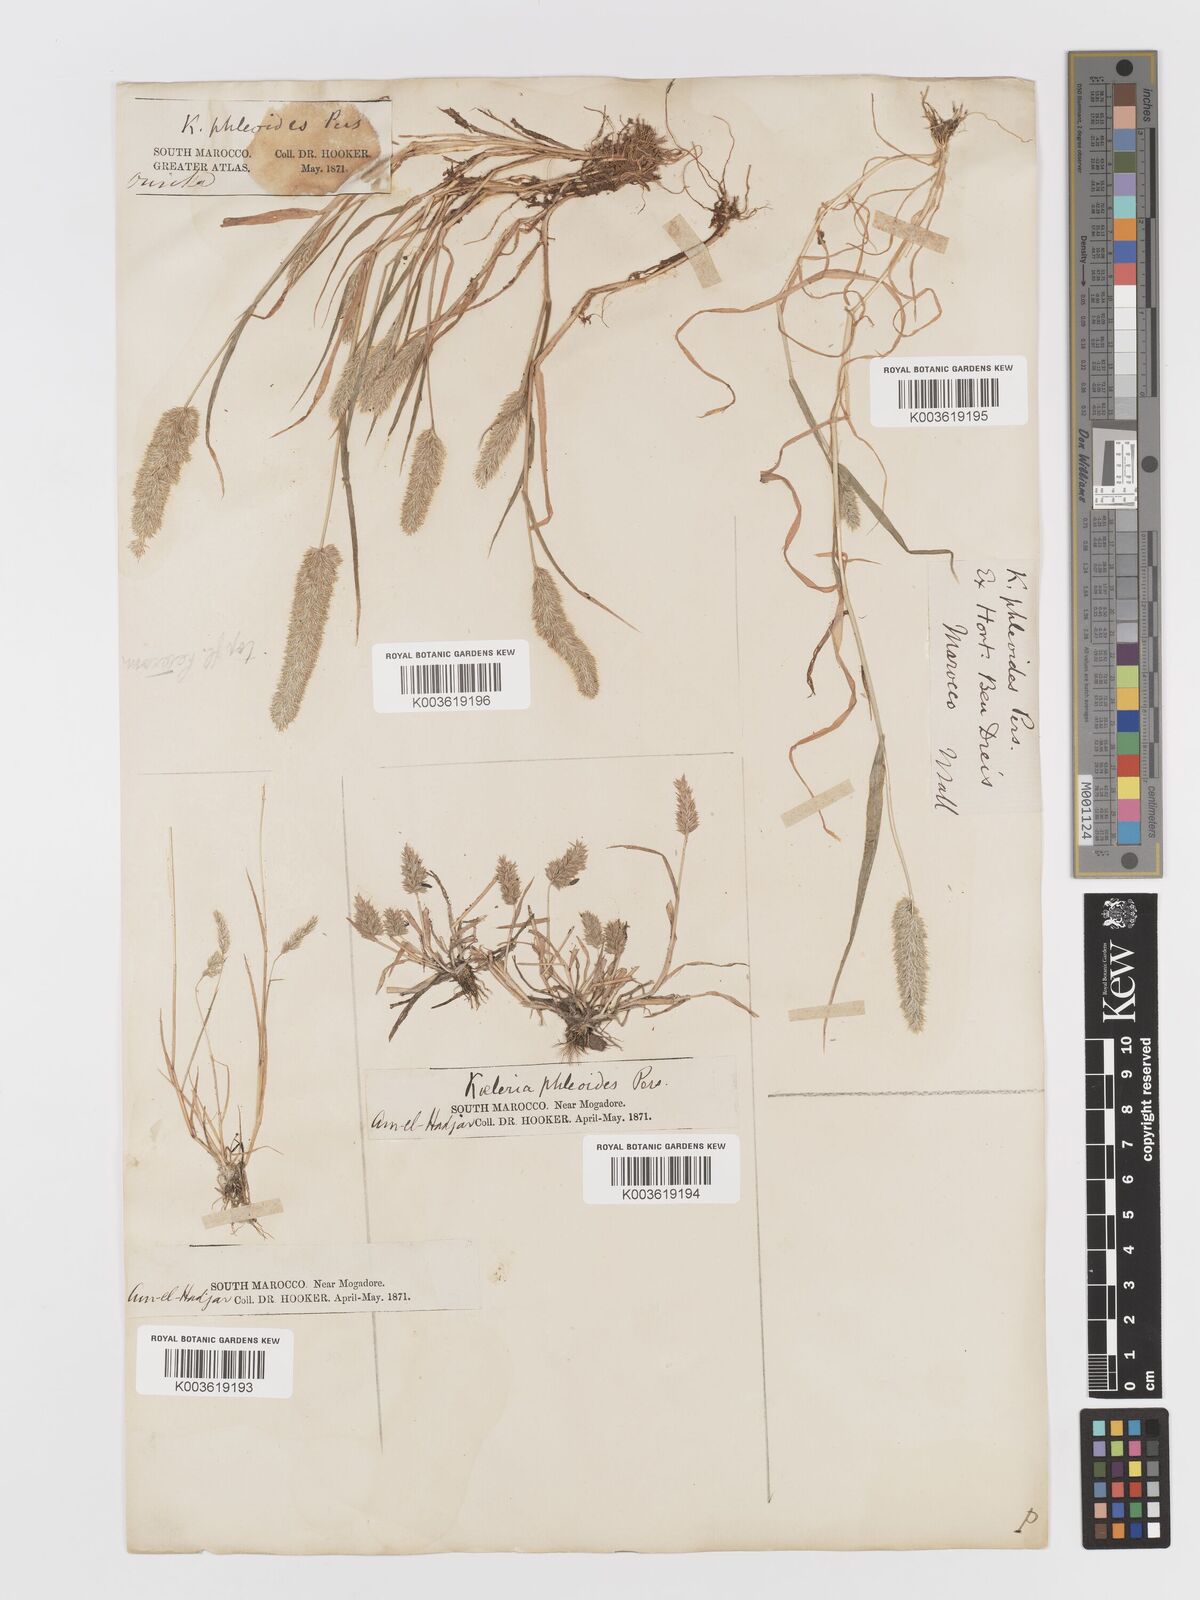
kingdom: Plantae
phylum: Tracheophyta
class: Liliopsida
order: Poales
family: Poaceae
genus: Rostraria
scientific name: Rostraria cristata
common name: Mediterranean hair-grass
